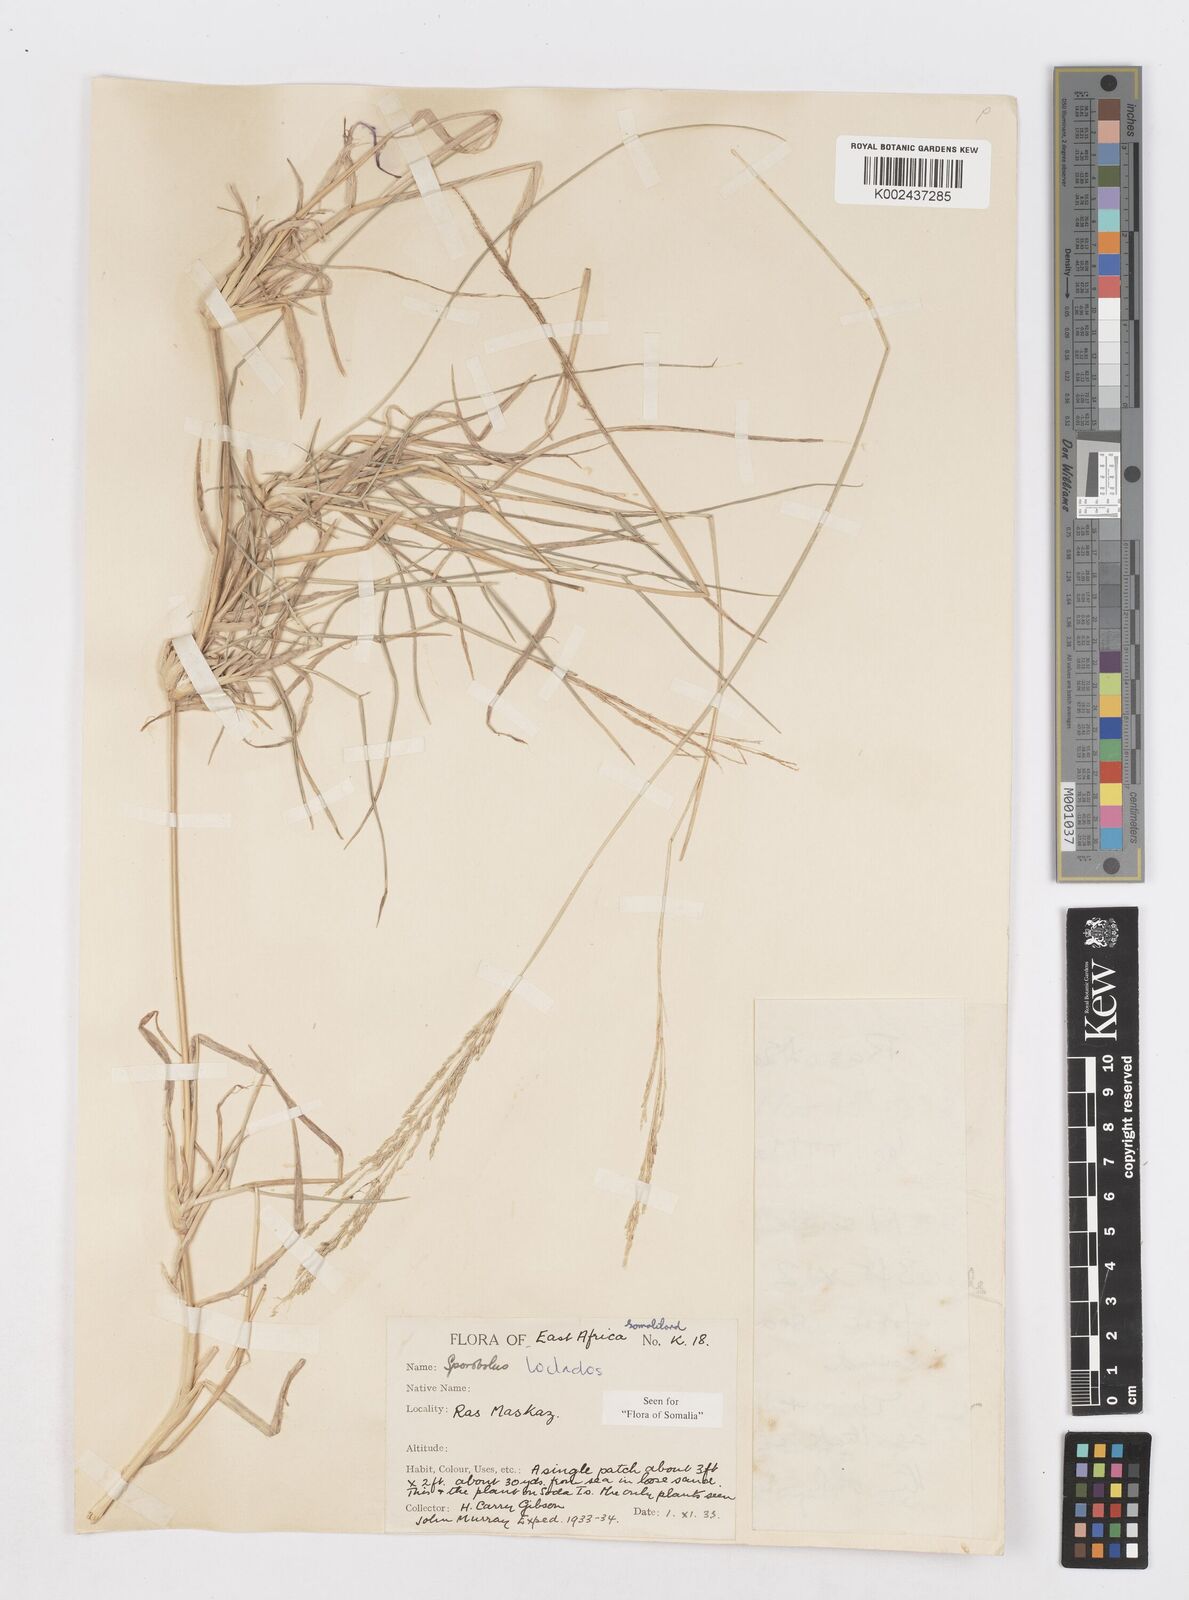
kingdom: Plantae
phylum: Tracheophyta
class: Liliopsida
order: Poales
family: Poaceae
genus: Sporobolus
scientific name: Sporobolus ioclados
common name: Pan dropseed
